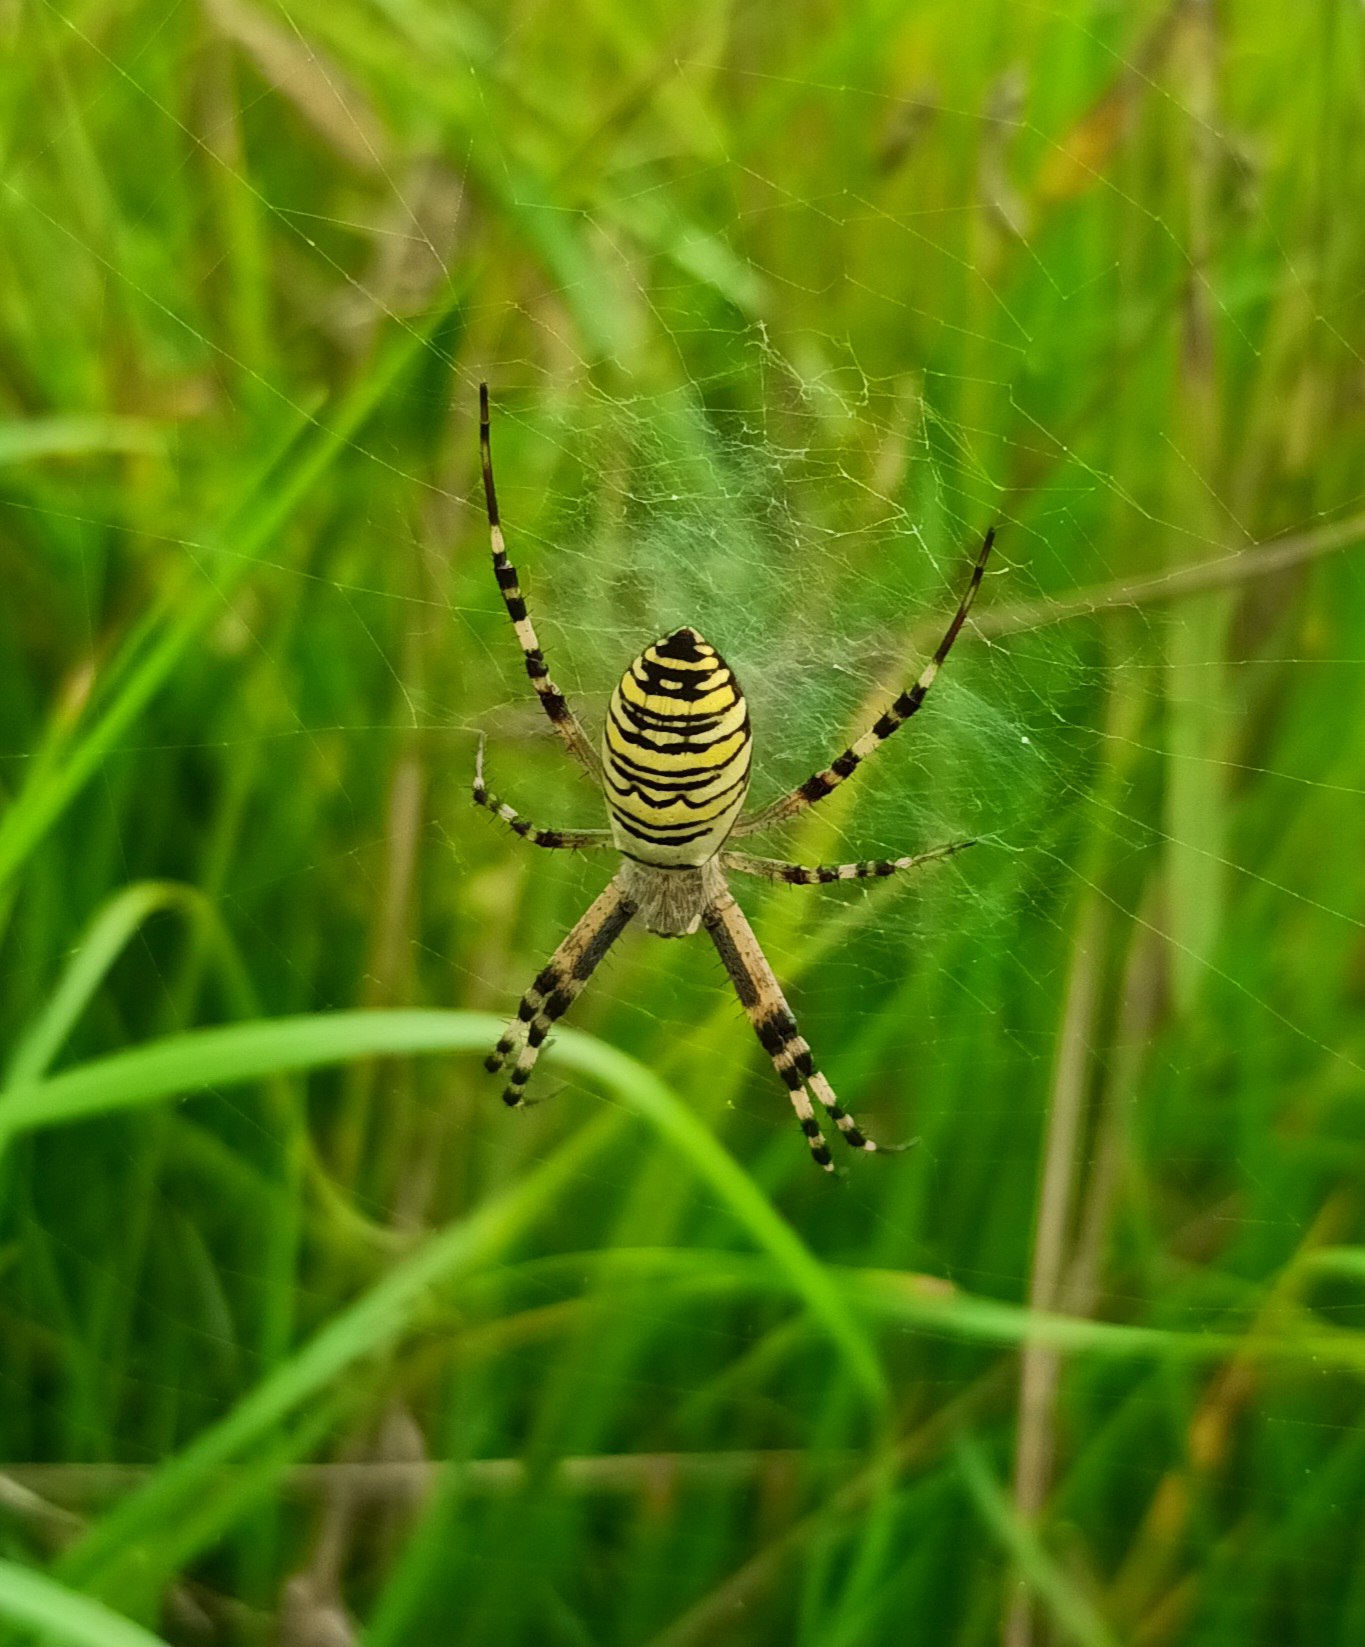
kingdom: Animalia
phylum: Arthropoda
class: Arachnida
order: Araneae
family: Araneidae
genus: Argiope
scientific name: Argiope bruennichi
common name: Hvepseedderkop
